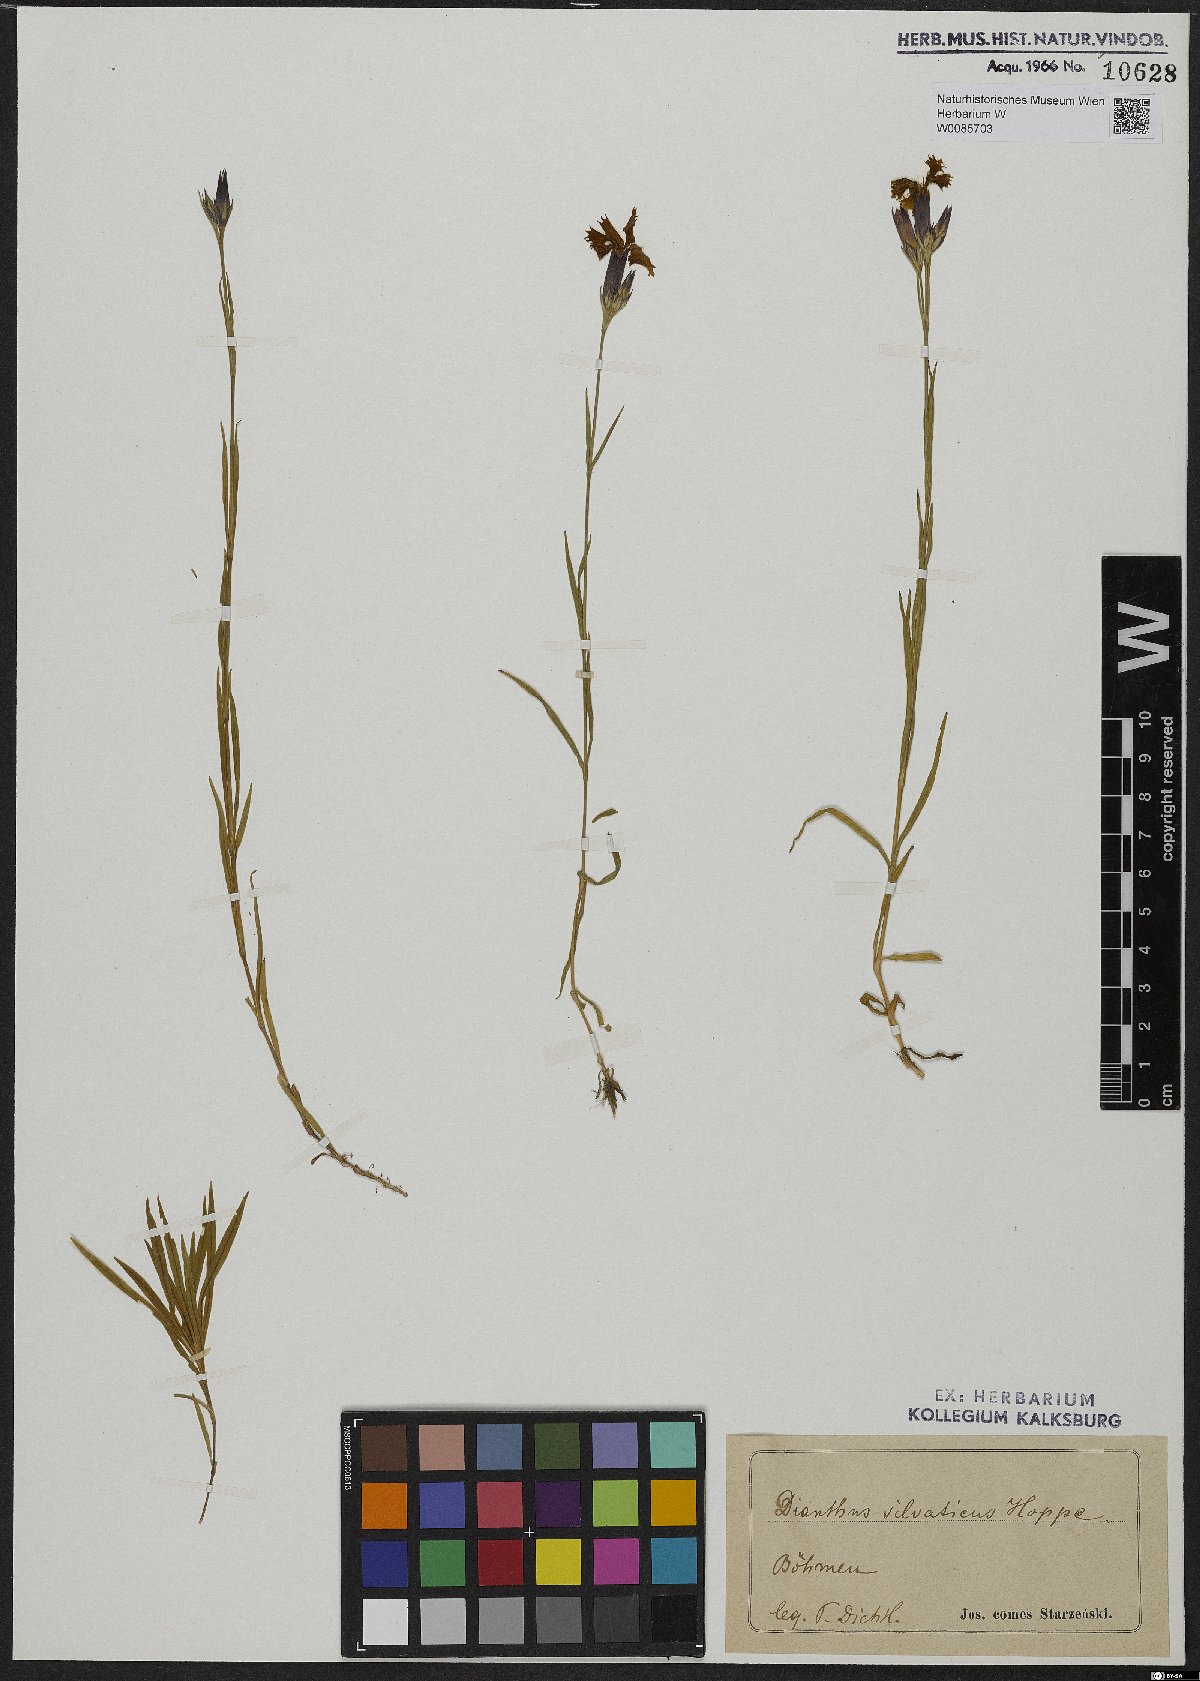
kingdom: Plantae
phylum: Tracheophyta
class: Magnoliopsida
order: Caryophyllales
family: Caryophyllaceae
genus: Dianthus
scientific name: Dianthus seguieri
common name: Ragged pink
